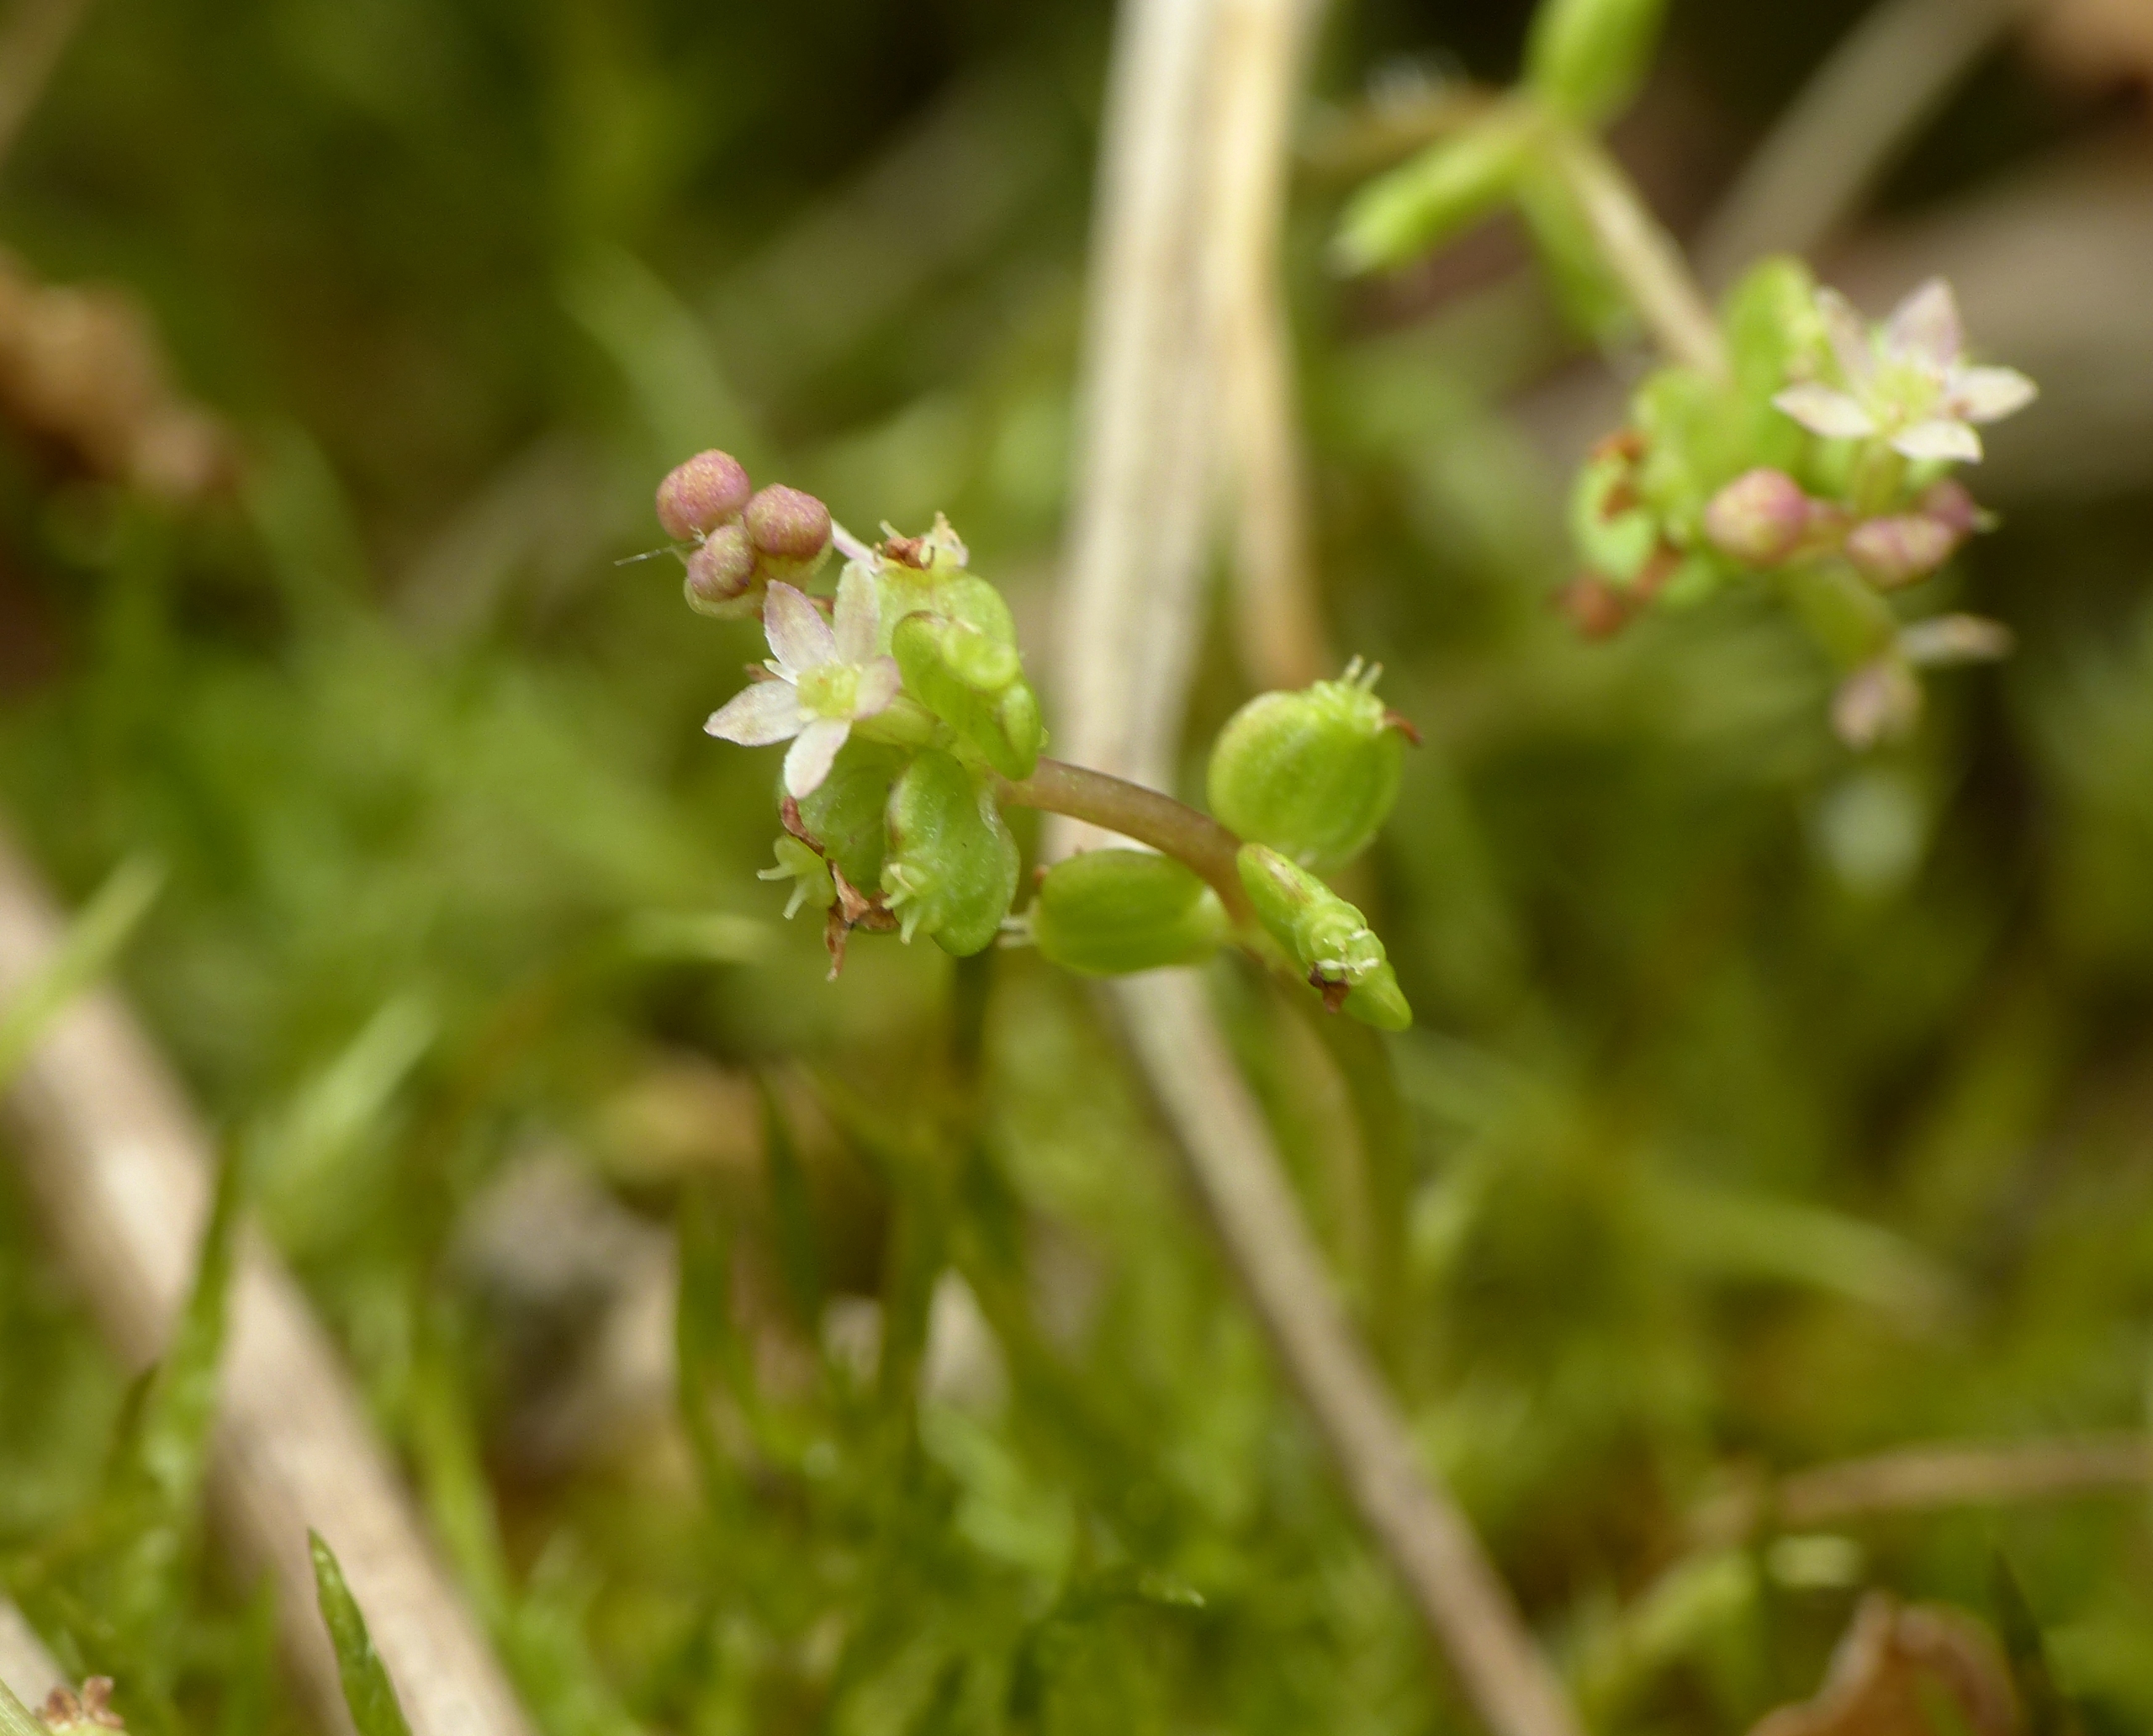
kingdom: Plantae
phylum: Tracheophyta
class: Magnoliopsida
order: Apiales
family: Araliaceae
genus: Hydrocotyle
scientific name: Hydrocotyle vulgaris
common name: Vandnavle
